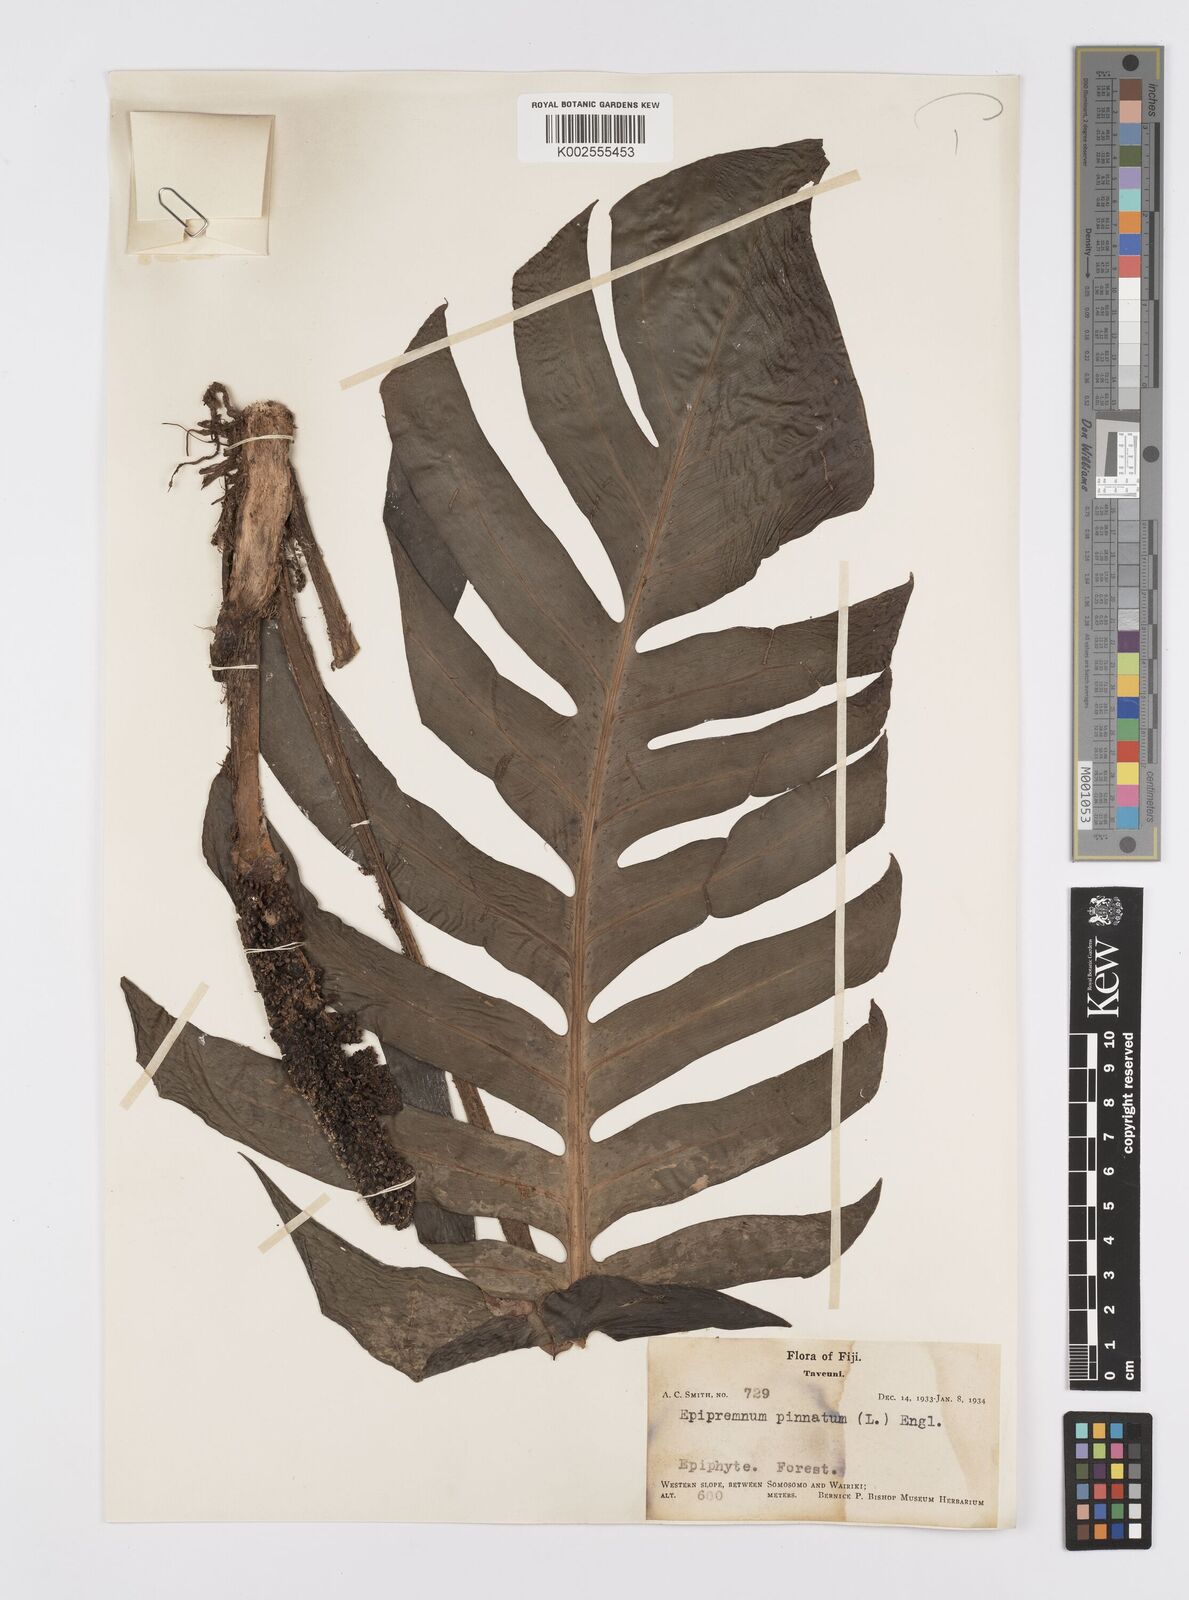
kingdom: Plantae
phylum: Tracheophyta
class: Liliopsida
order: Alismatales
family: Araceae
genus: Epipremnum
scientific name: Epipremnum pinnatum
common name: Centipede tongavine
